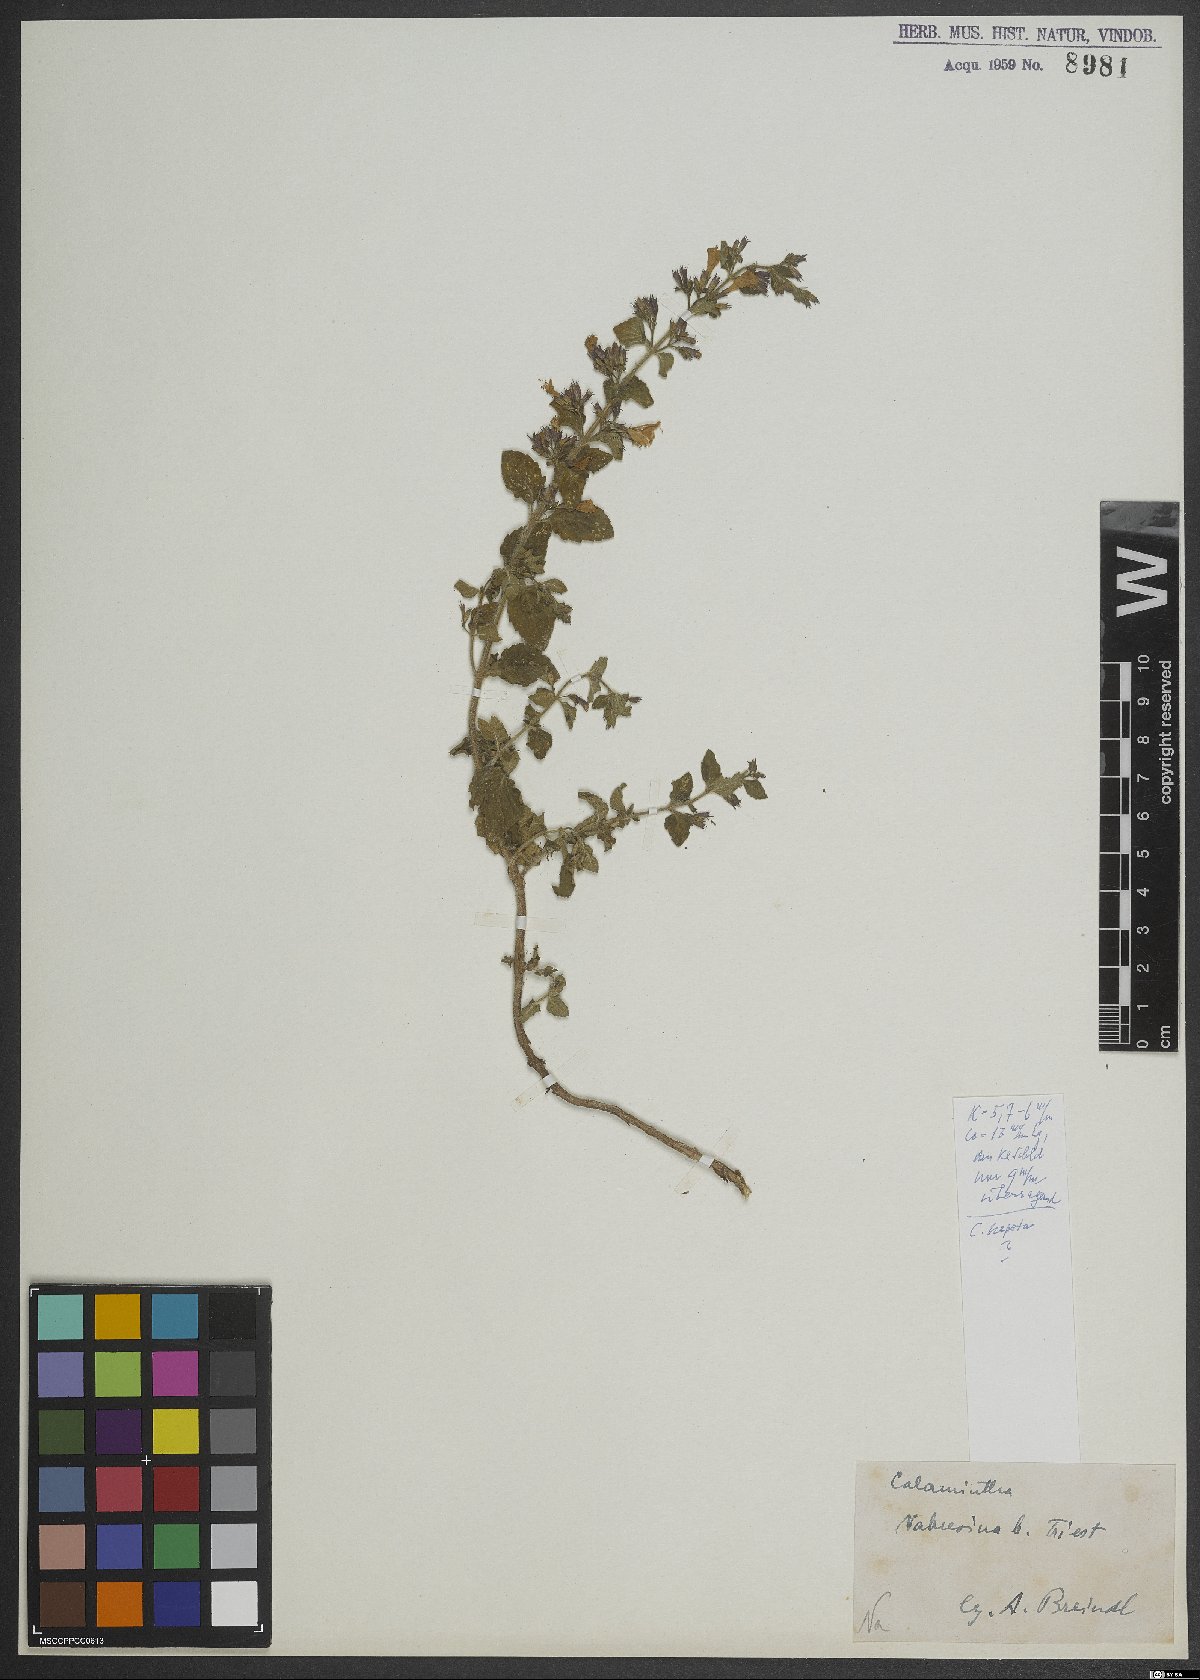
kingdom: Plantae
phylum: Tracheophyta
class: Magnoliopsida
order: Lamiales
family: Lamiaceae
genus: Clinopodium
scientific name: Clinopodium nepeta
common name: Lesser calamint
